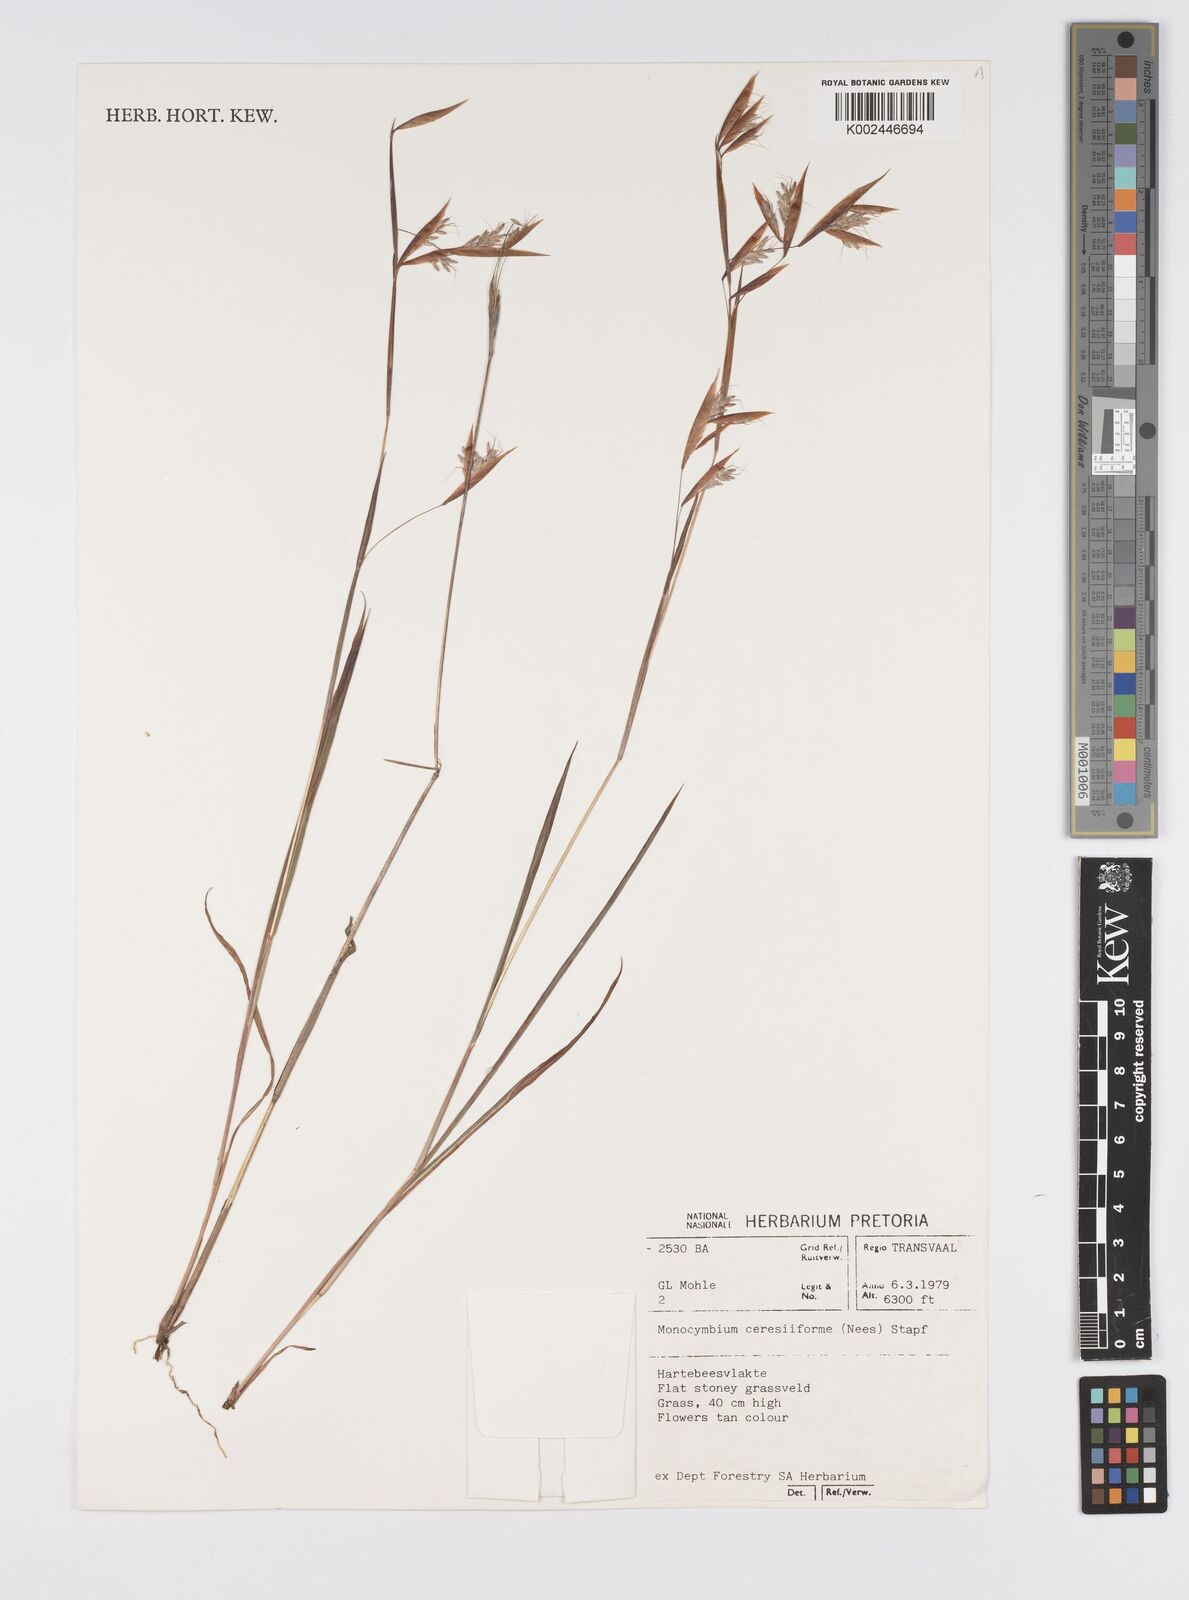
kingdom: Plantae
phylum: Tracheophyta
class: Liliopsida
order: Poales
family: Poaceae
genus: Monocymbium
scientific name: Monocymbium ceresiiforme
